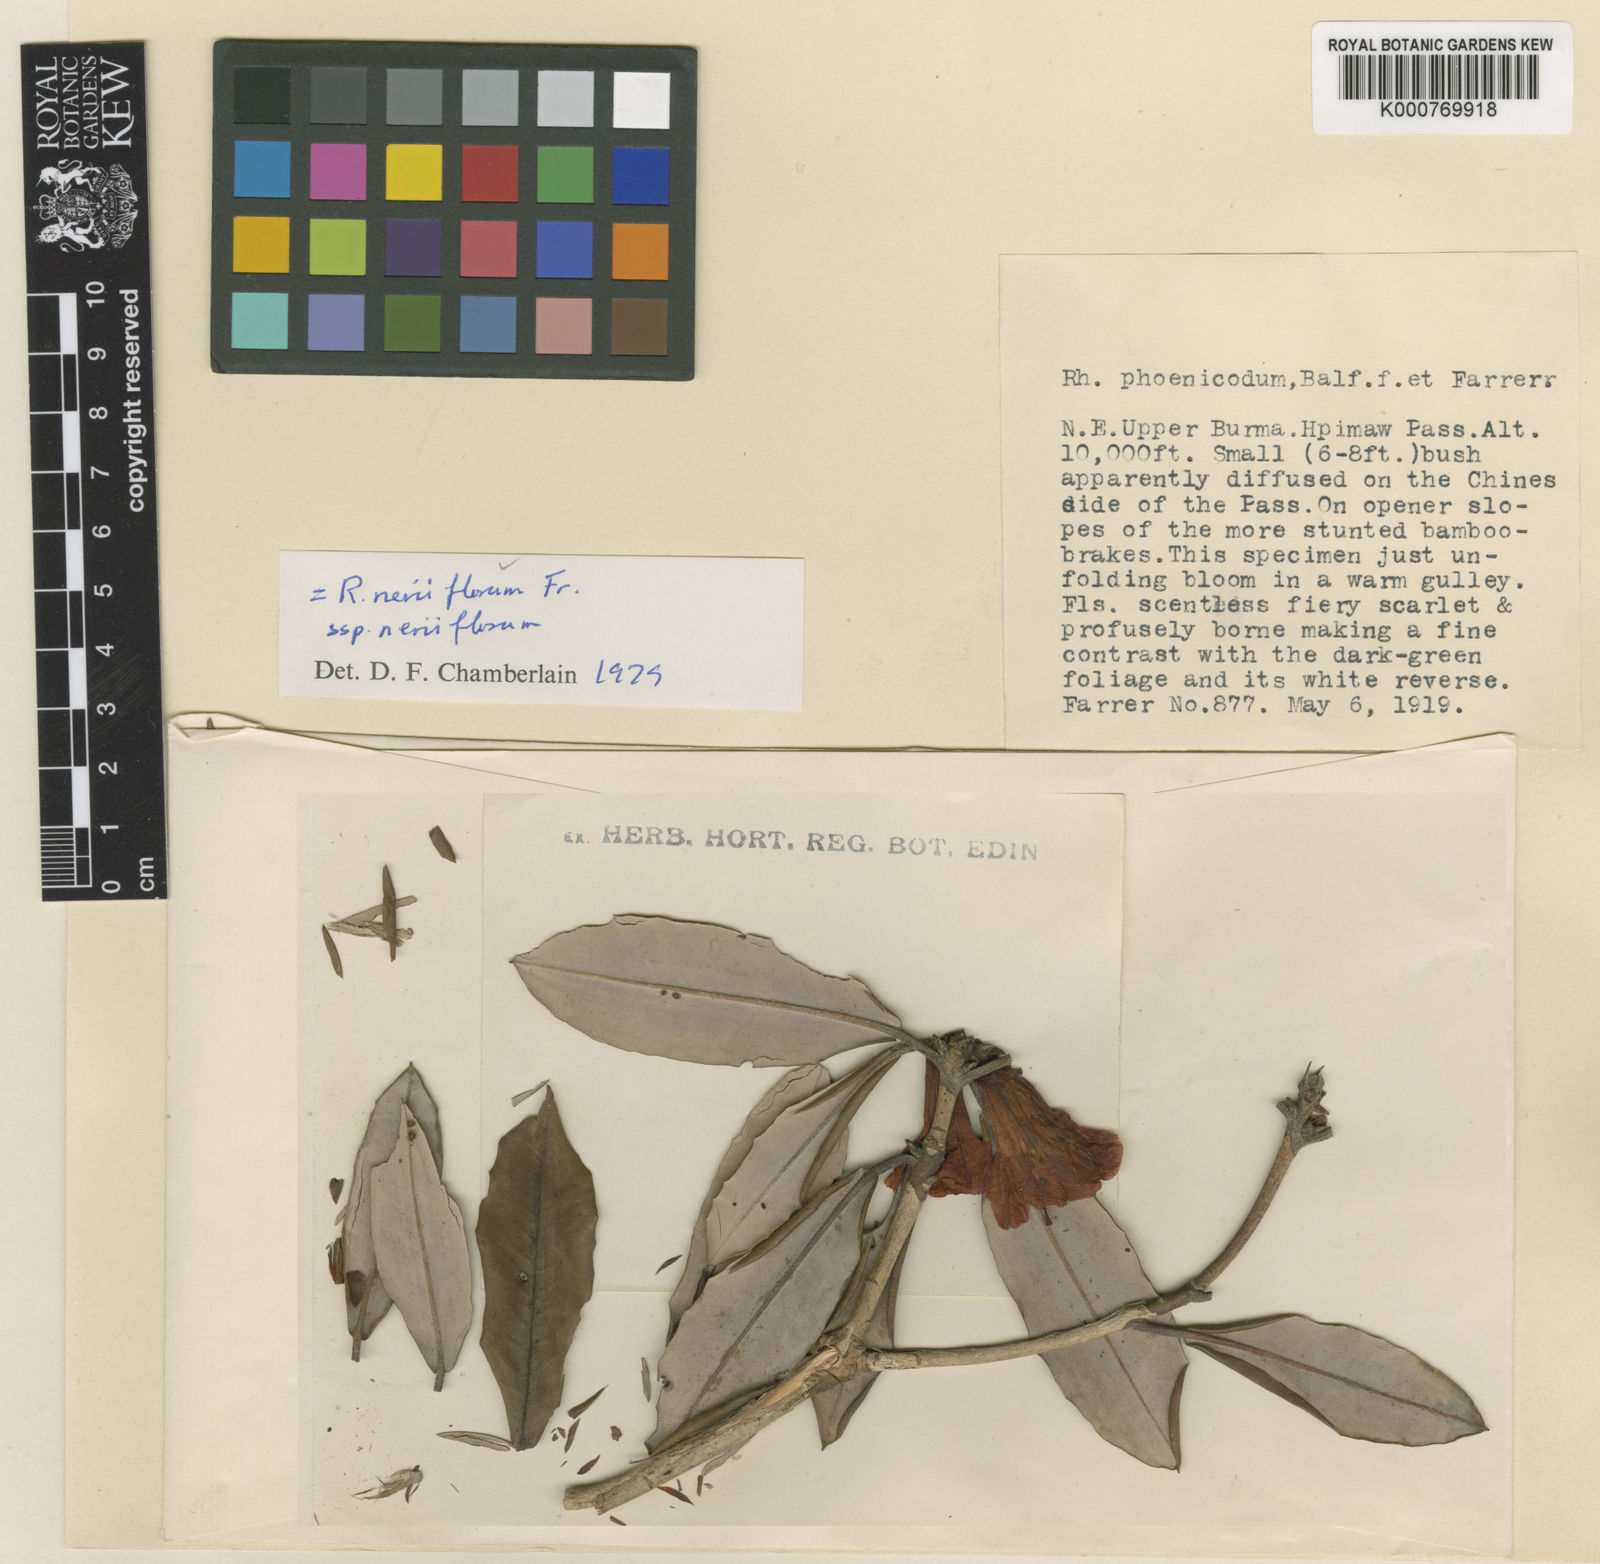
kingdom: Plantae
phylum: Tracheophyta
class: Magnoliopsida
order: Ericales
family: Ericaceae
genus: Rhododendron
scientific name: Rhododendron neriiflorum
